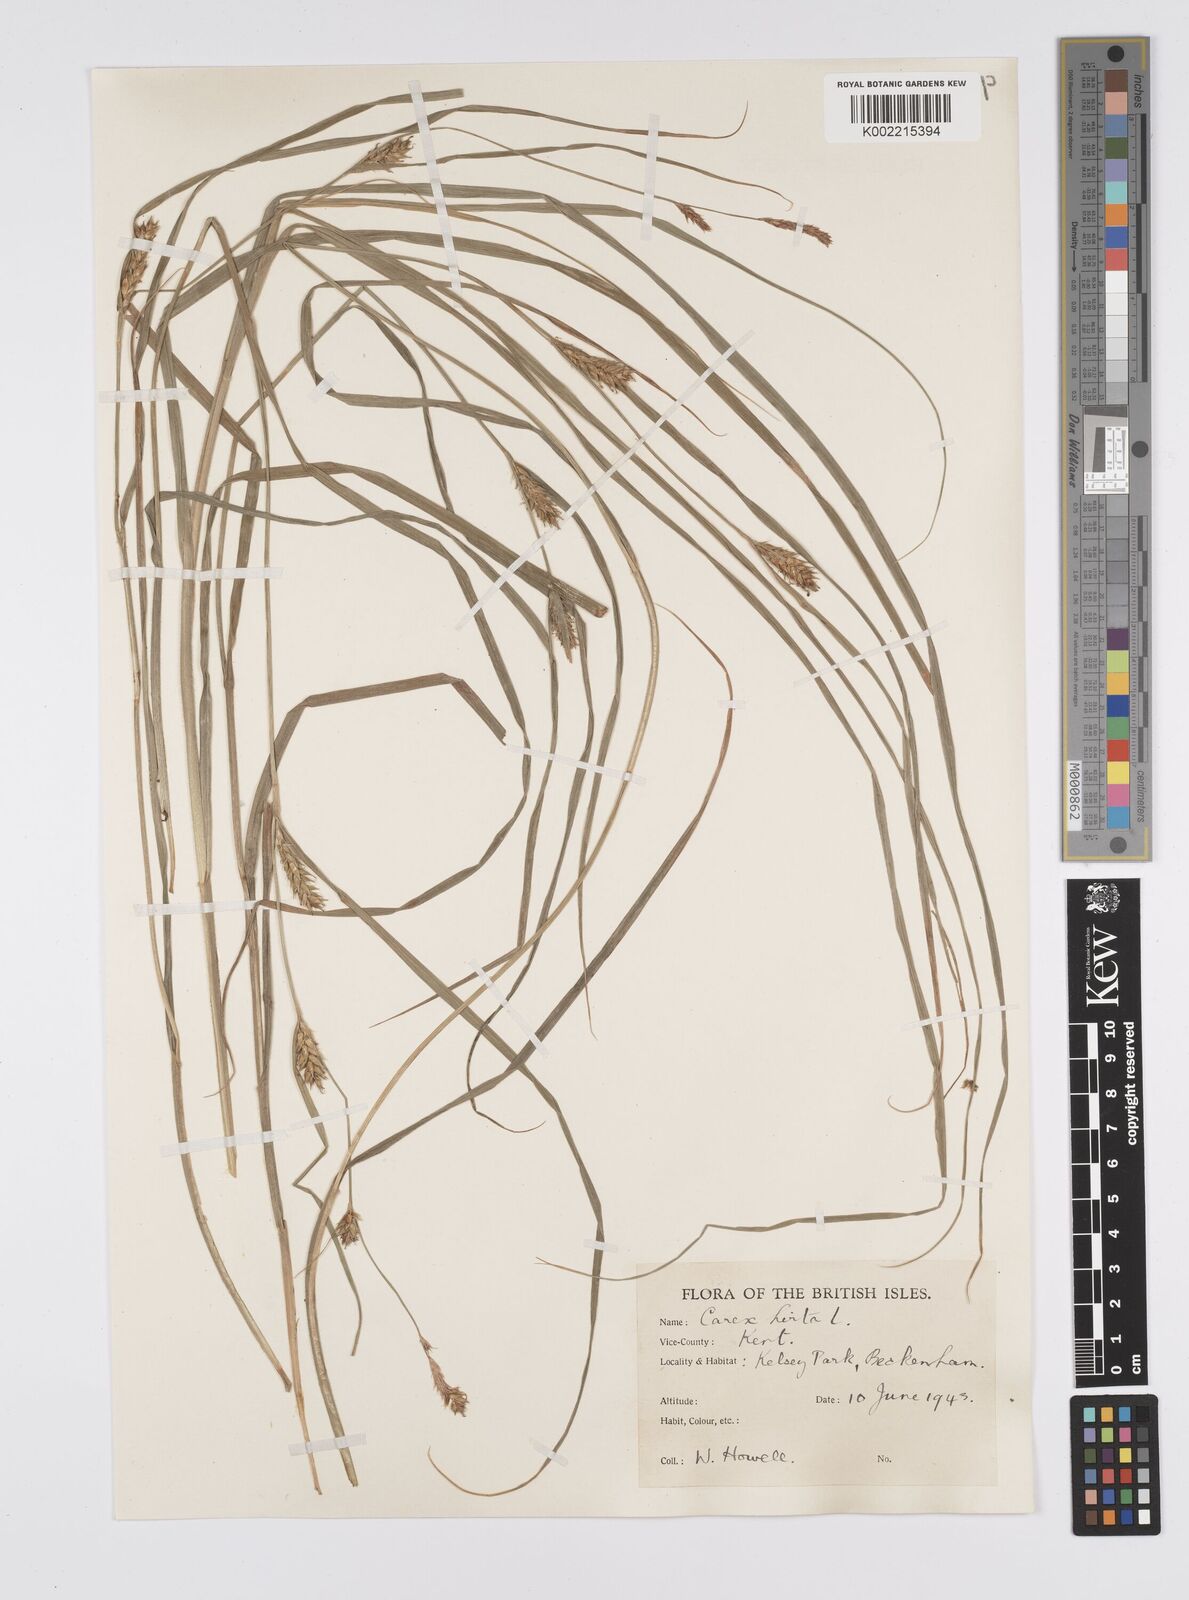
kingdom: Plantae
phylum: Tracheophyta
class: Liliopsida
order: Poales
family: Cyperaceae
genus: Carex
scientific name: Carex hirta
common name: Hairy sedge
